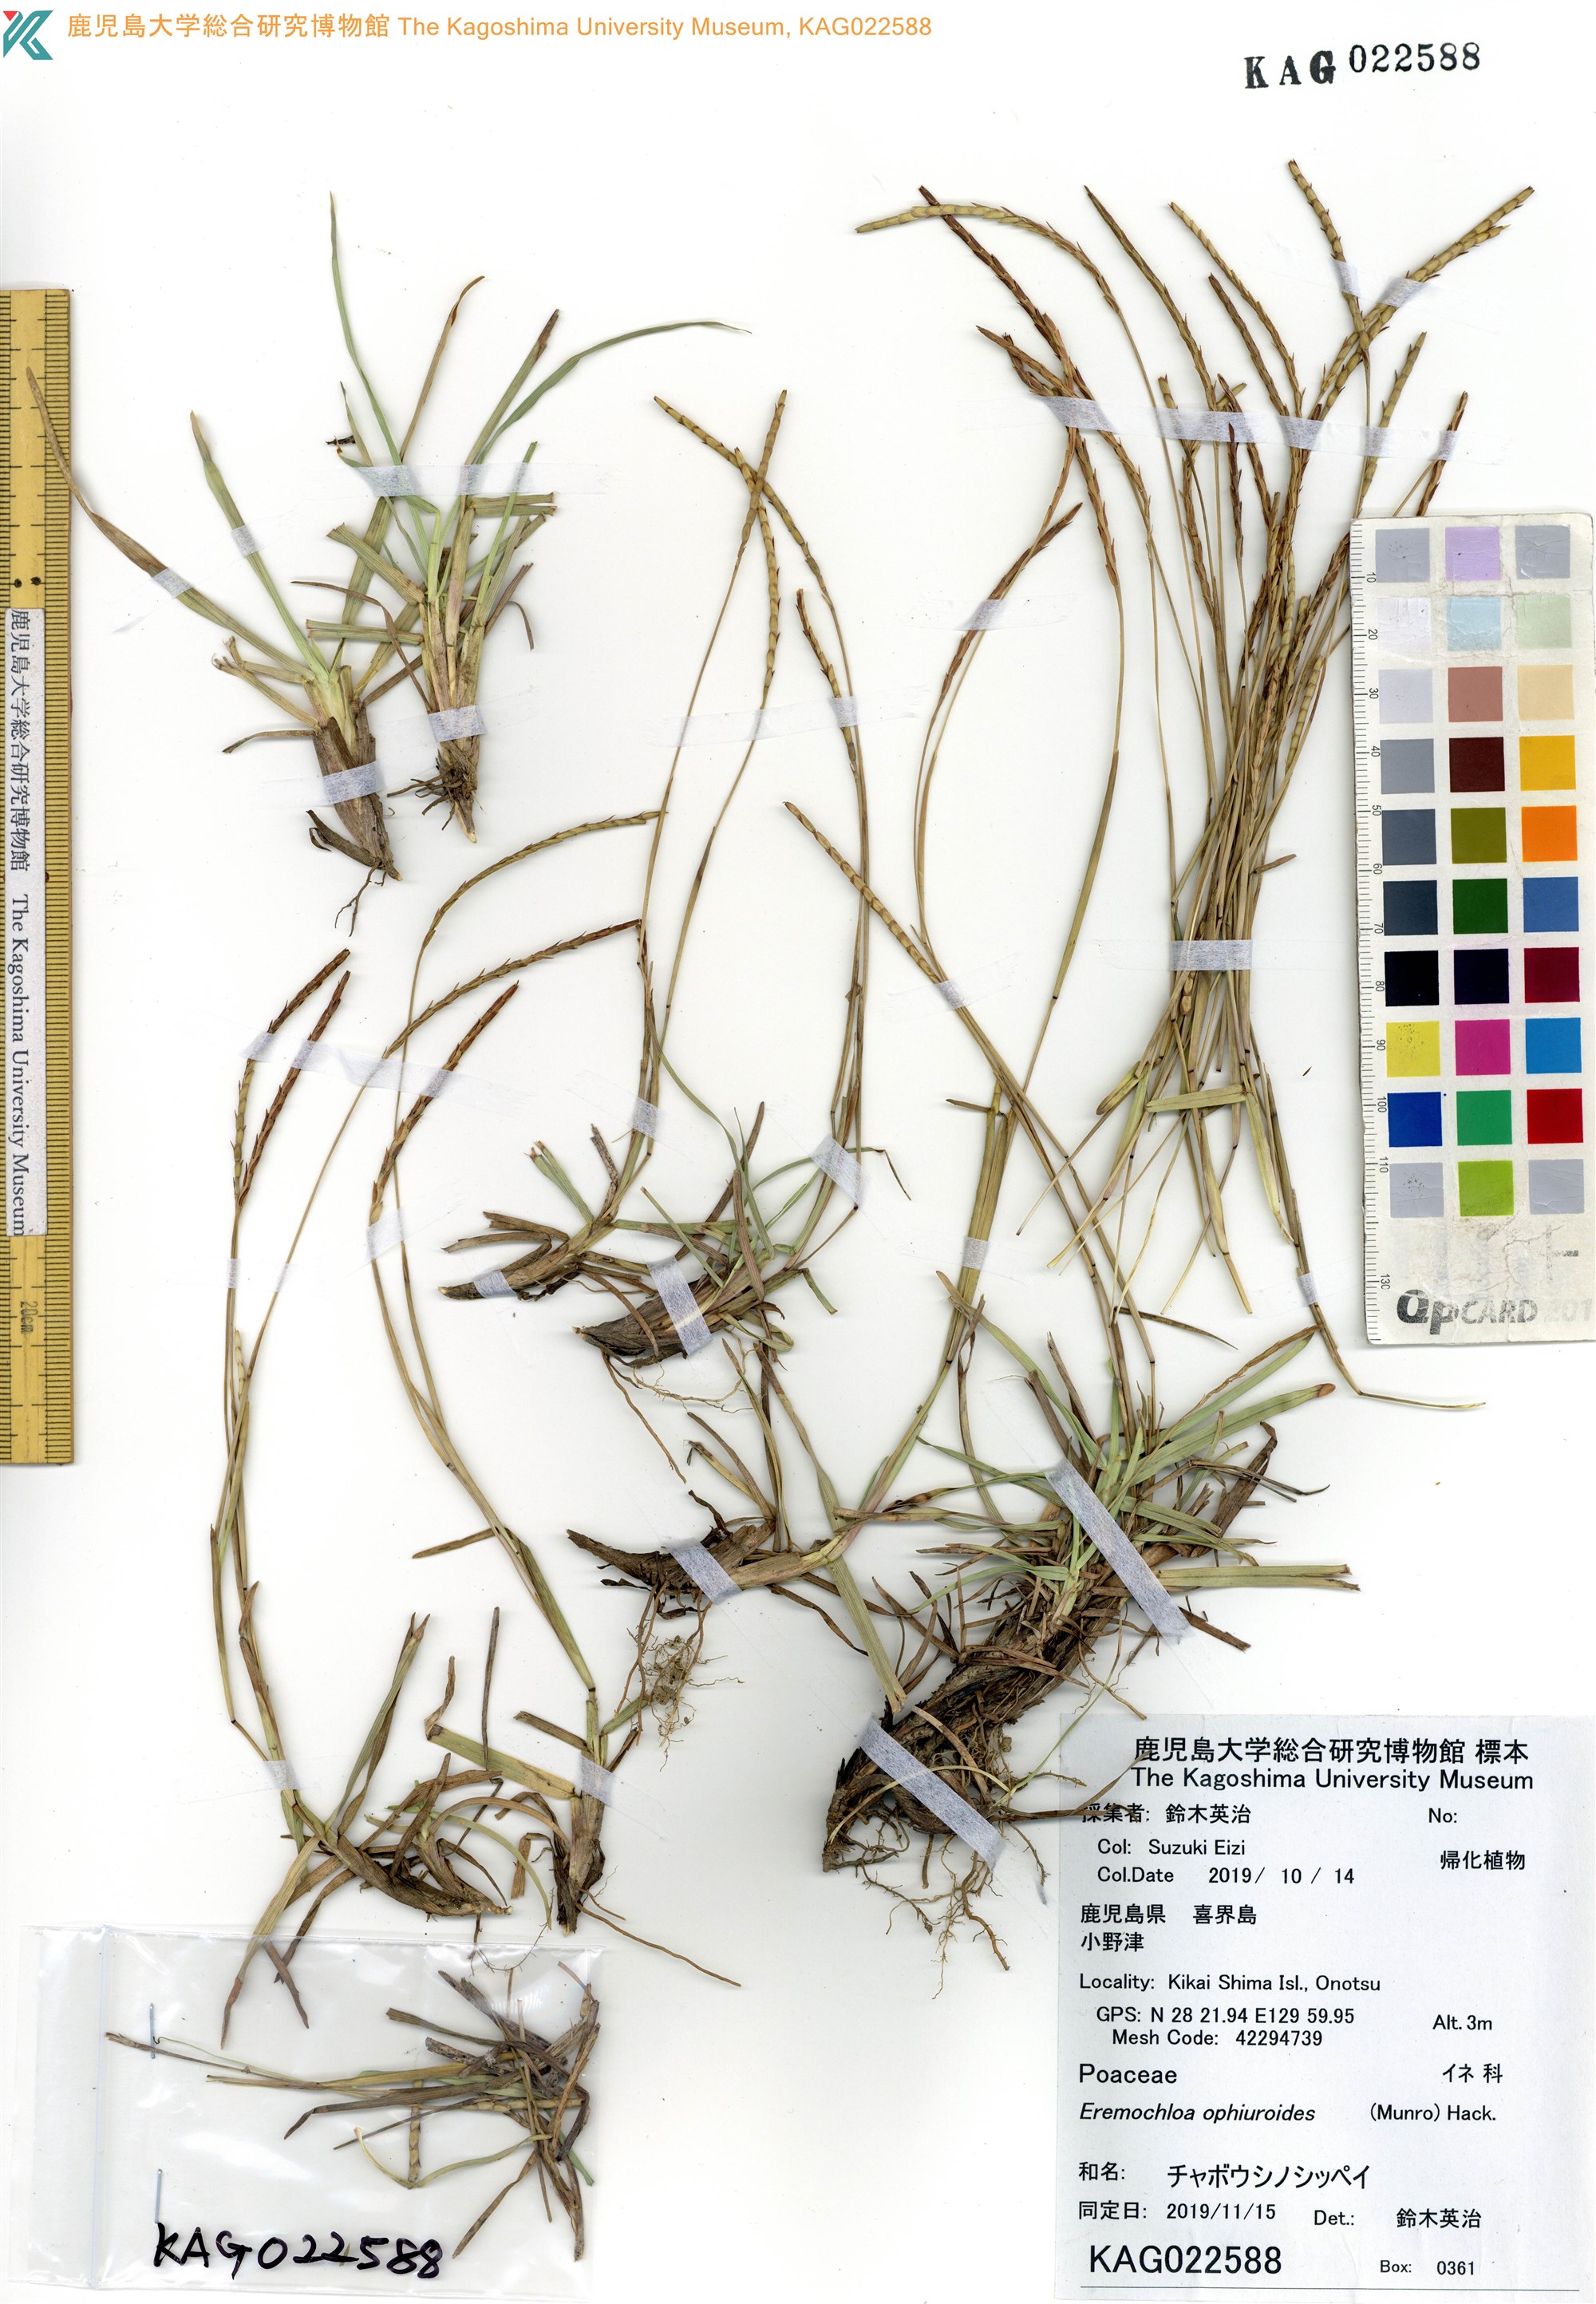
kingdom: Plantae
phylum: Tracheophyta
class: Liliopsida
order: Poales
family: Poaceae
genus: Eremochloa
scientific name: Eremochloa ophiuroides
